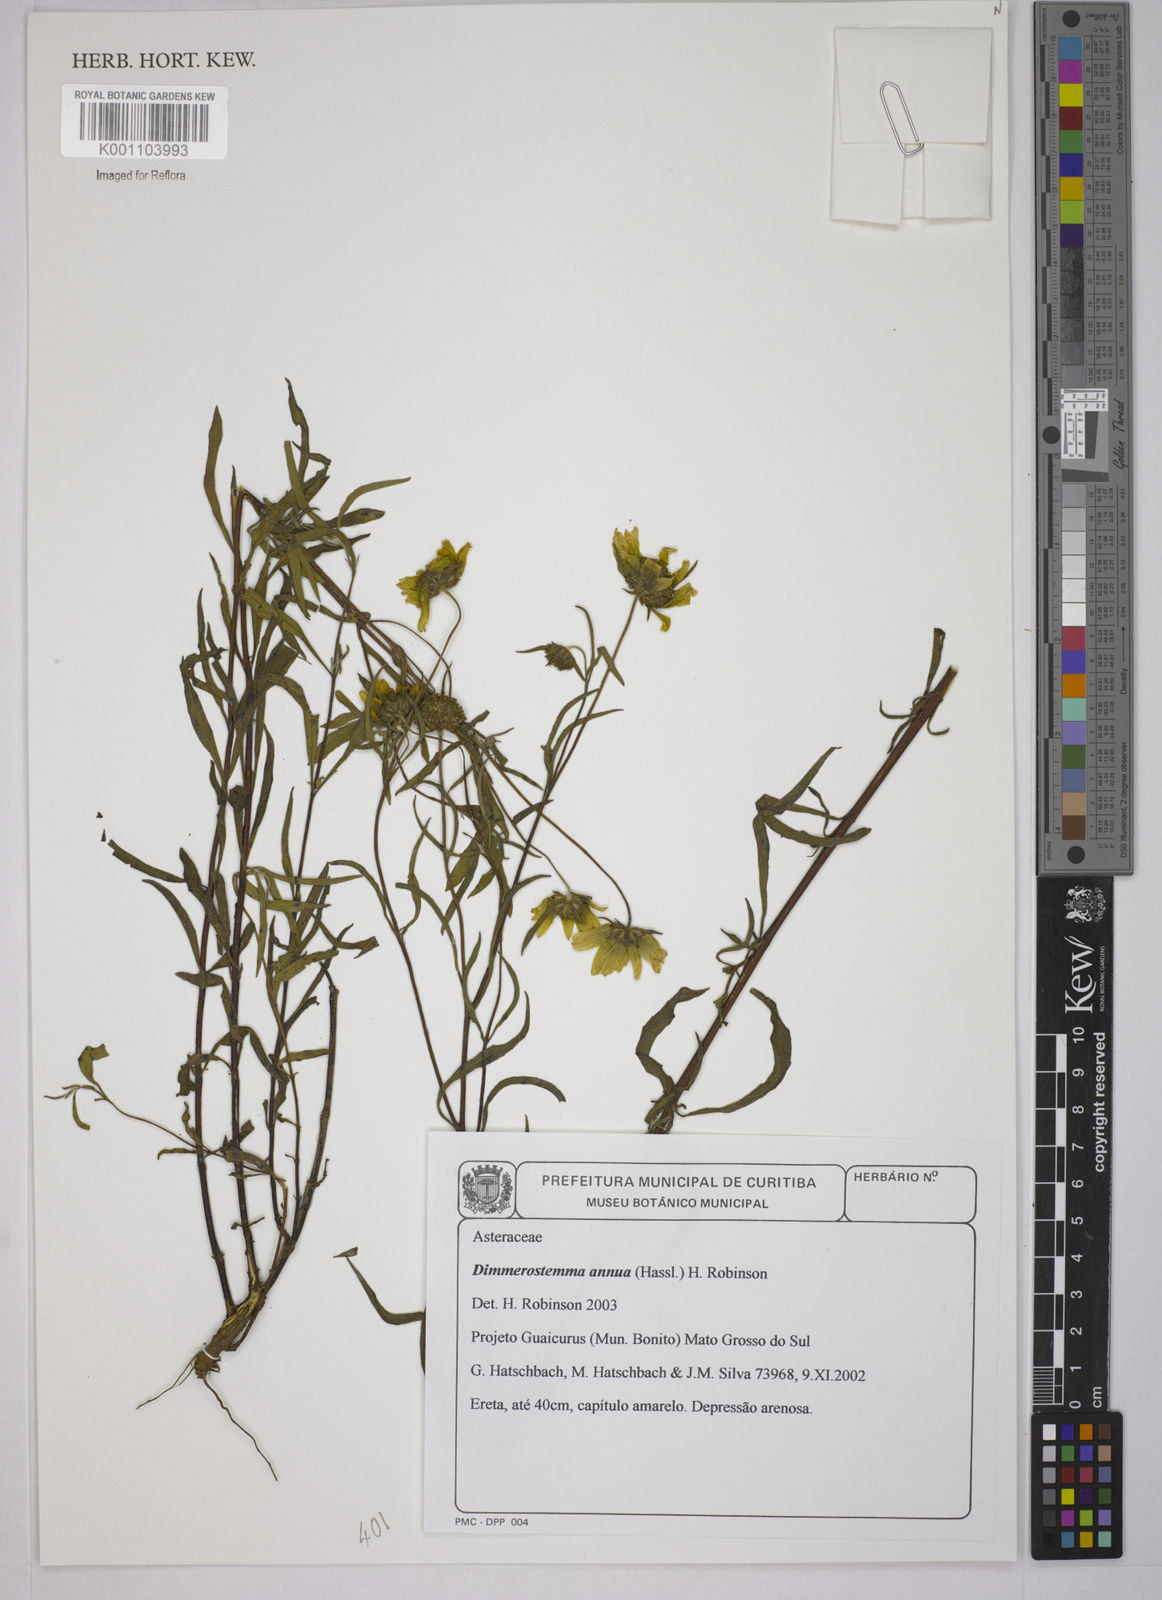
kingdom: Plantae
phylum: Tracheophyta
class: Magnoliopsida
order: Asterales
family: Asteraceae
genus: Dimerostemma
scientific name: Dimerostemma annuum
